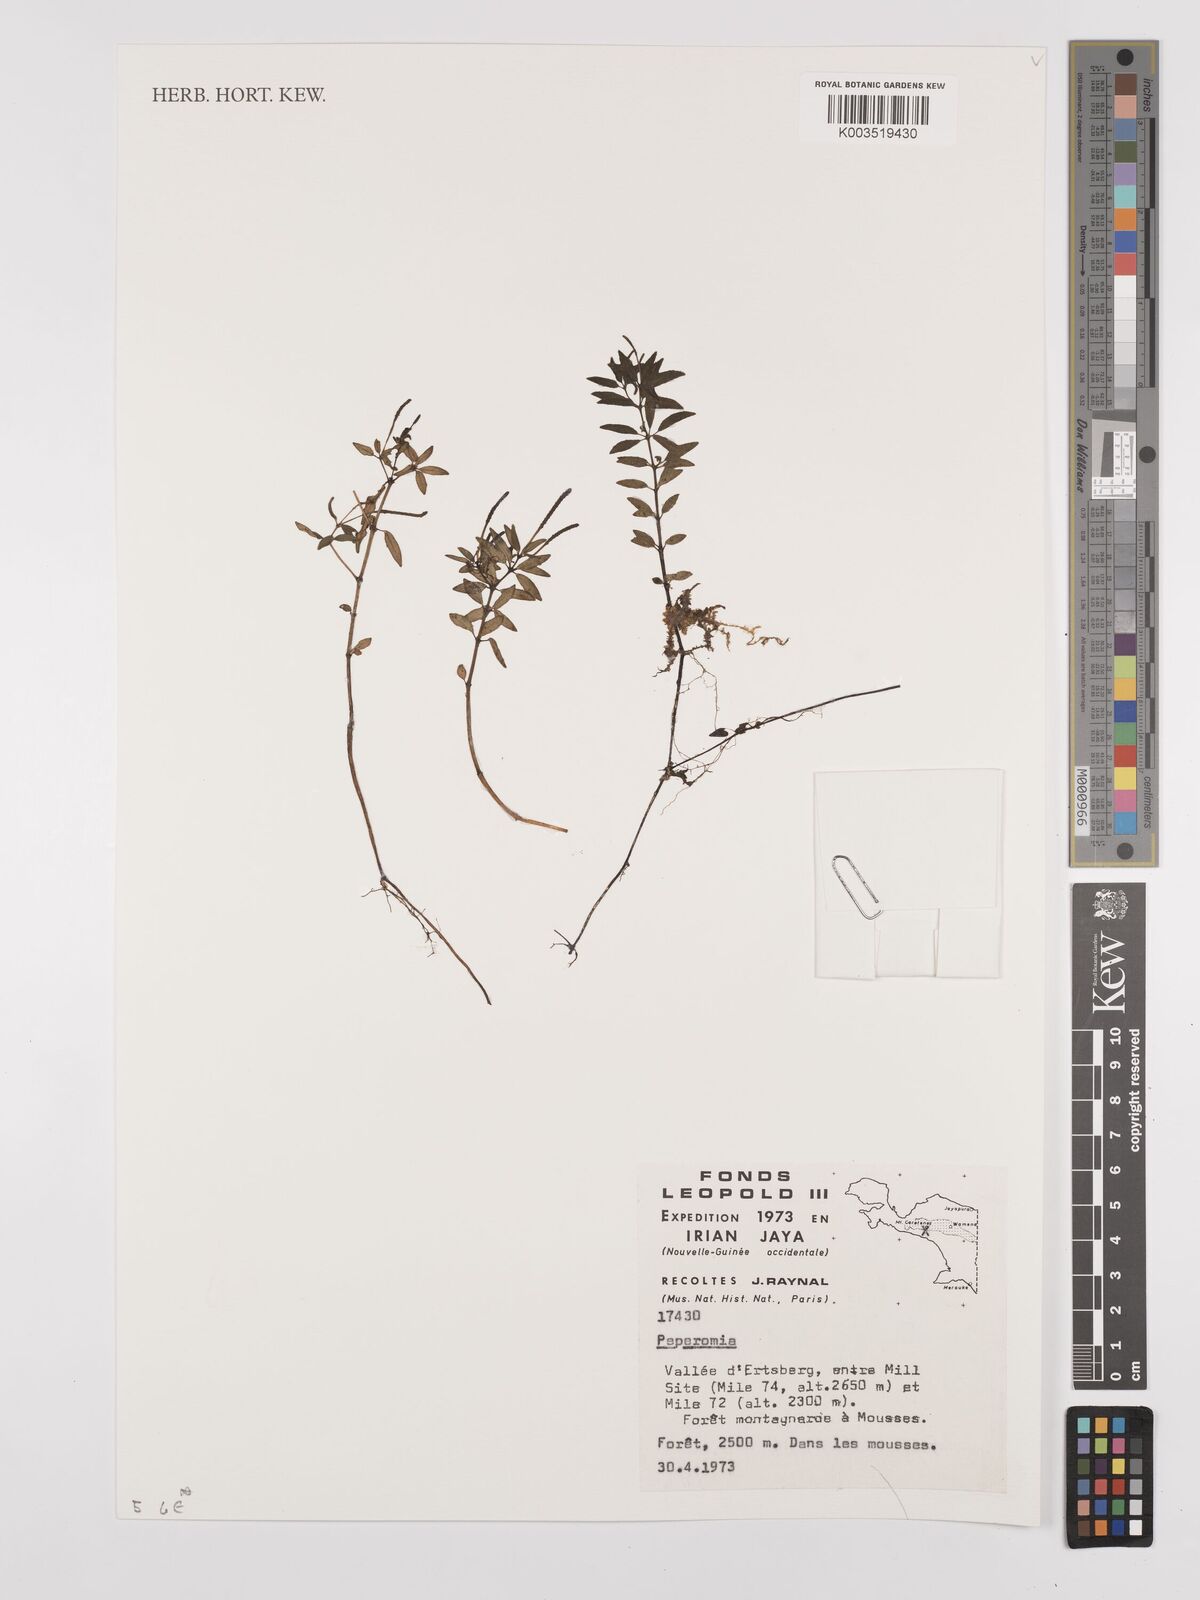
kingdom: Plantae
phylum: Tracheophyta
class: Magnoliopsida
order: Piperales
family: Piperaceae
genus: Peperomia
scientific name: Peperomia
